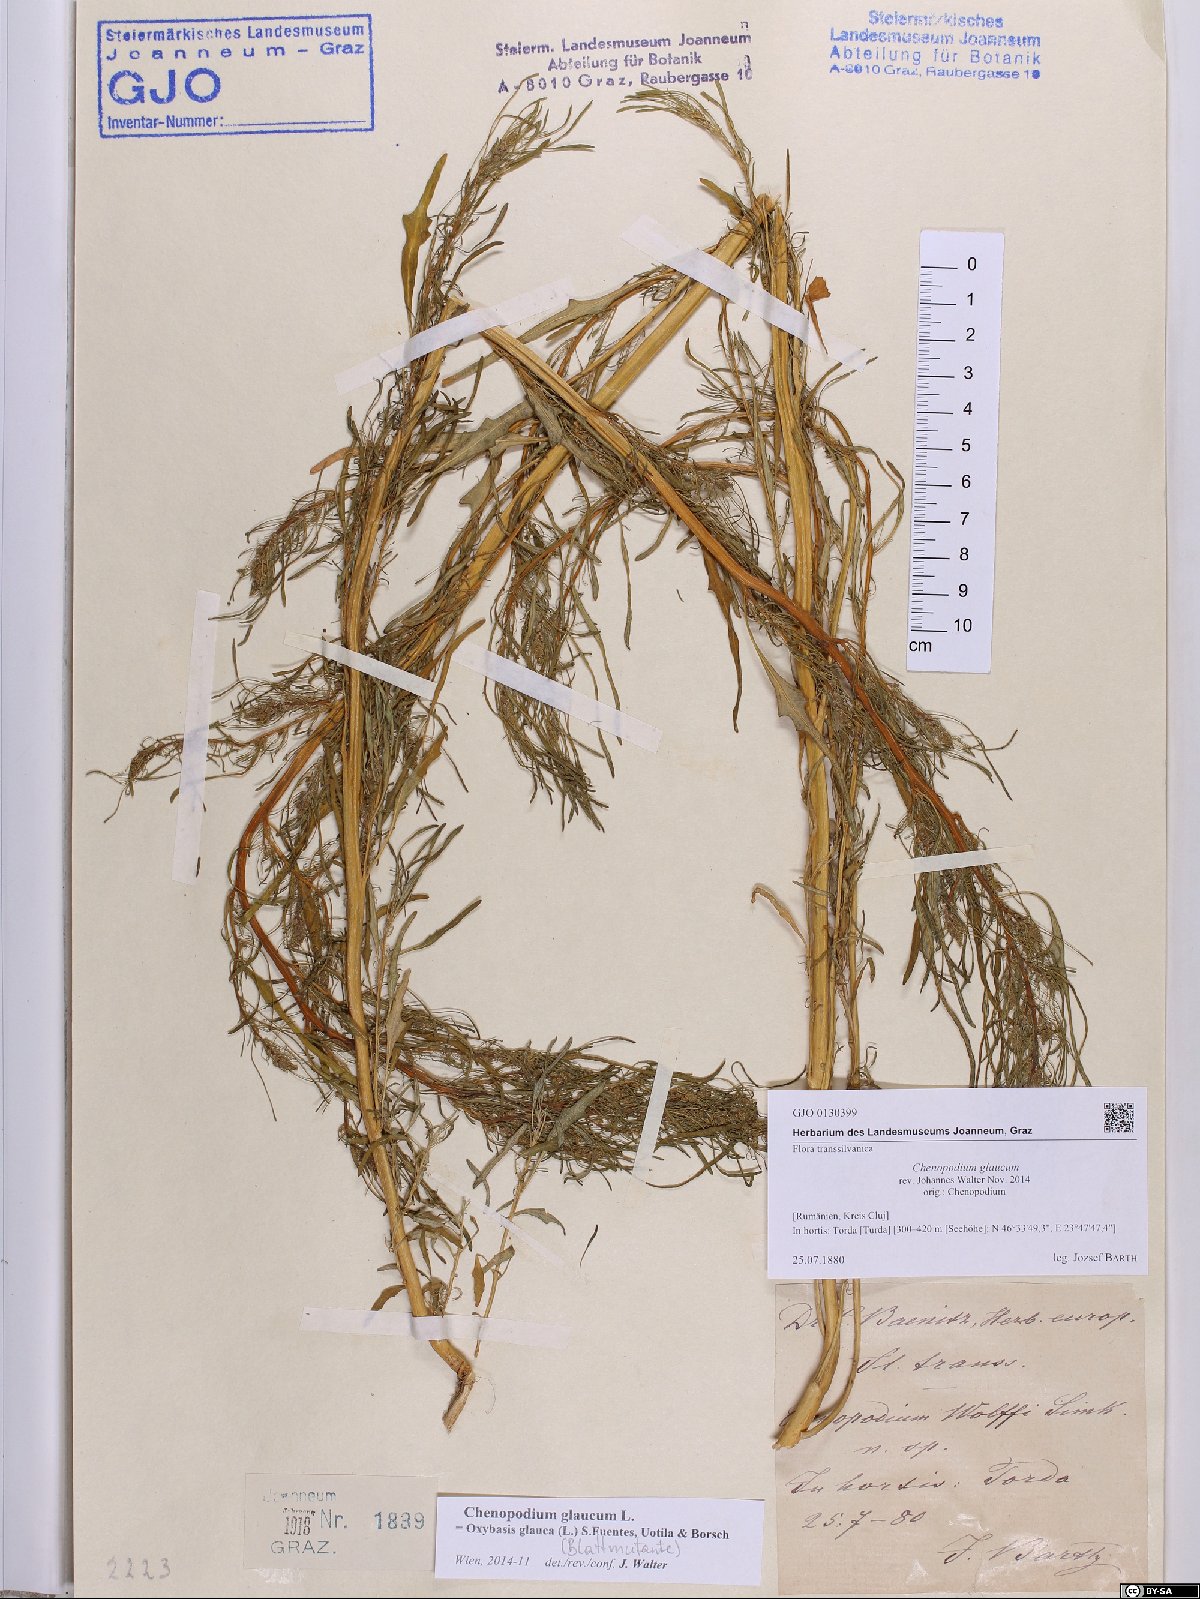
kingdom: Plantae
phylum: Tracheophyta
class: Magnoliopsida
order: Caryophyllales
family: Amaranthaceae
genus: Oxybasis
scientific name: Oxybasis glauca
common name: Glaucous goosefoot
